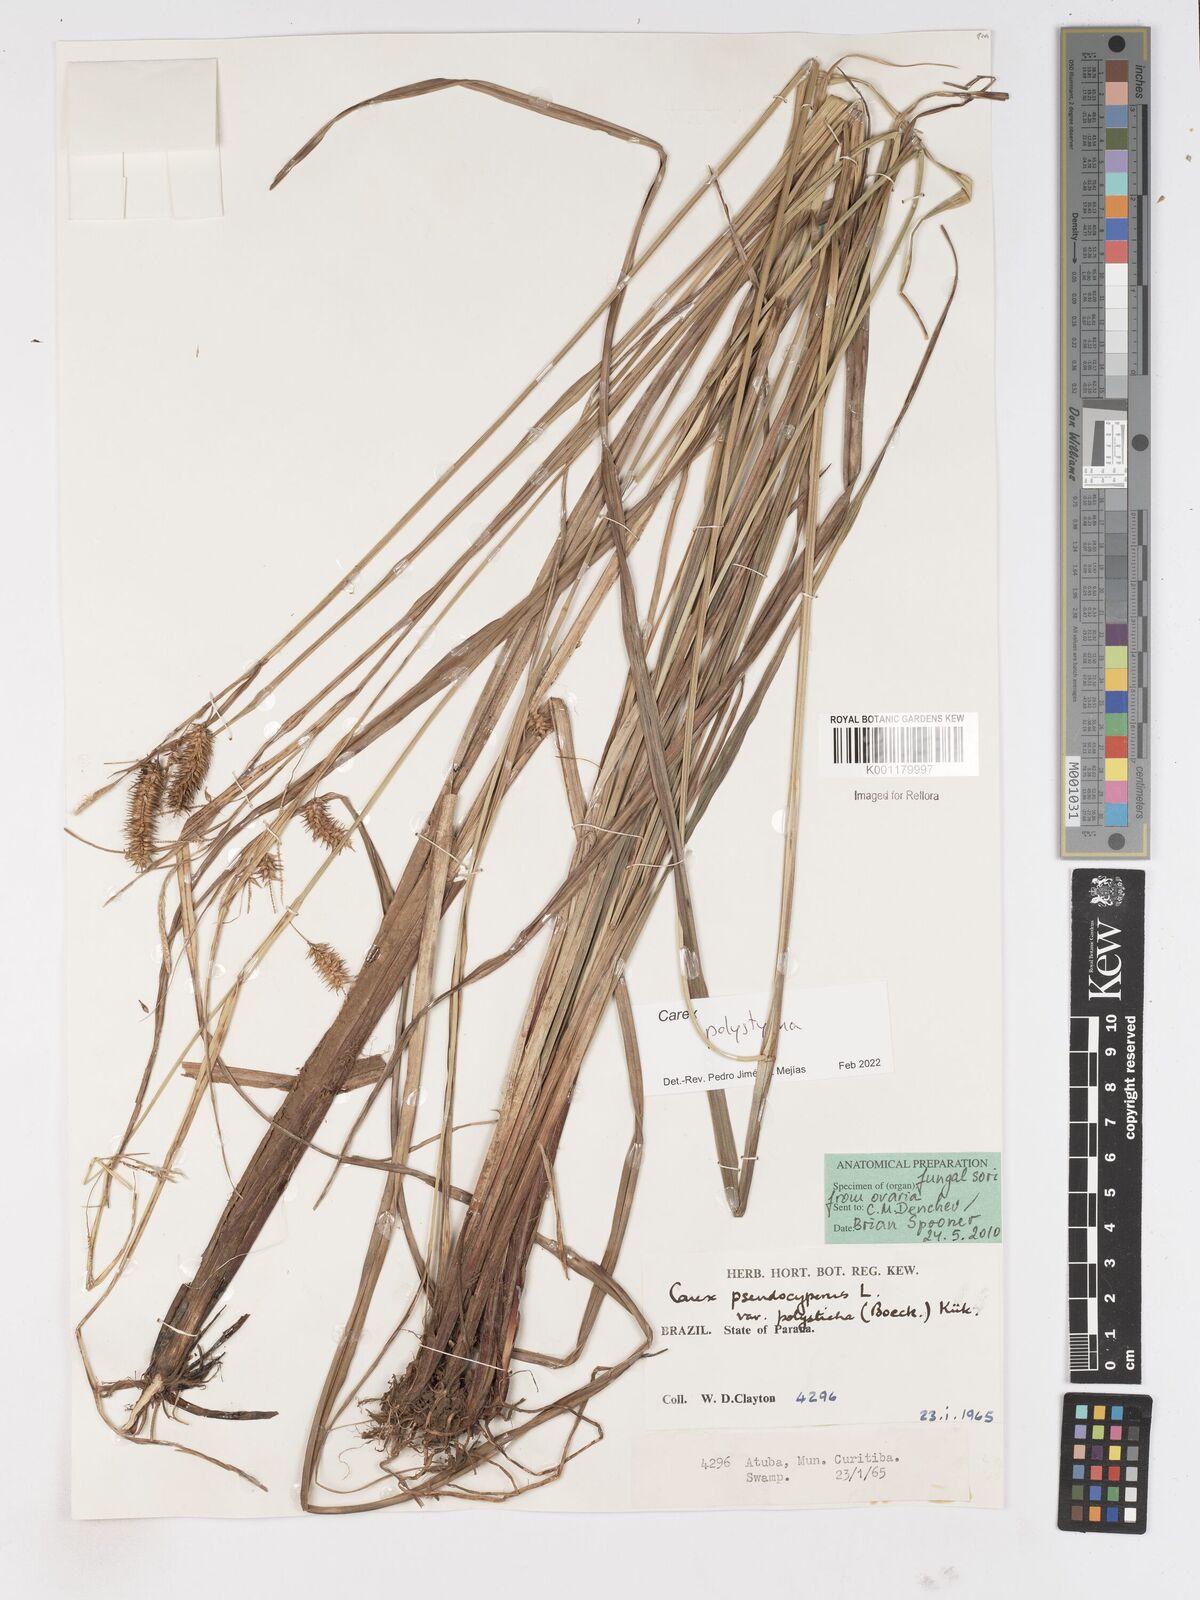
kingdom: Plantae
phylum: Tracheophyta
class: Liliopsida
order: Poales
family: Cyperaceae
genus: Carex
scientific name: Carex polysticha
